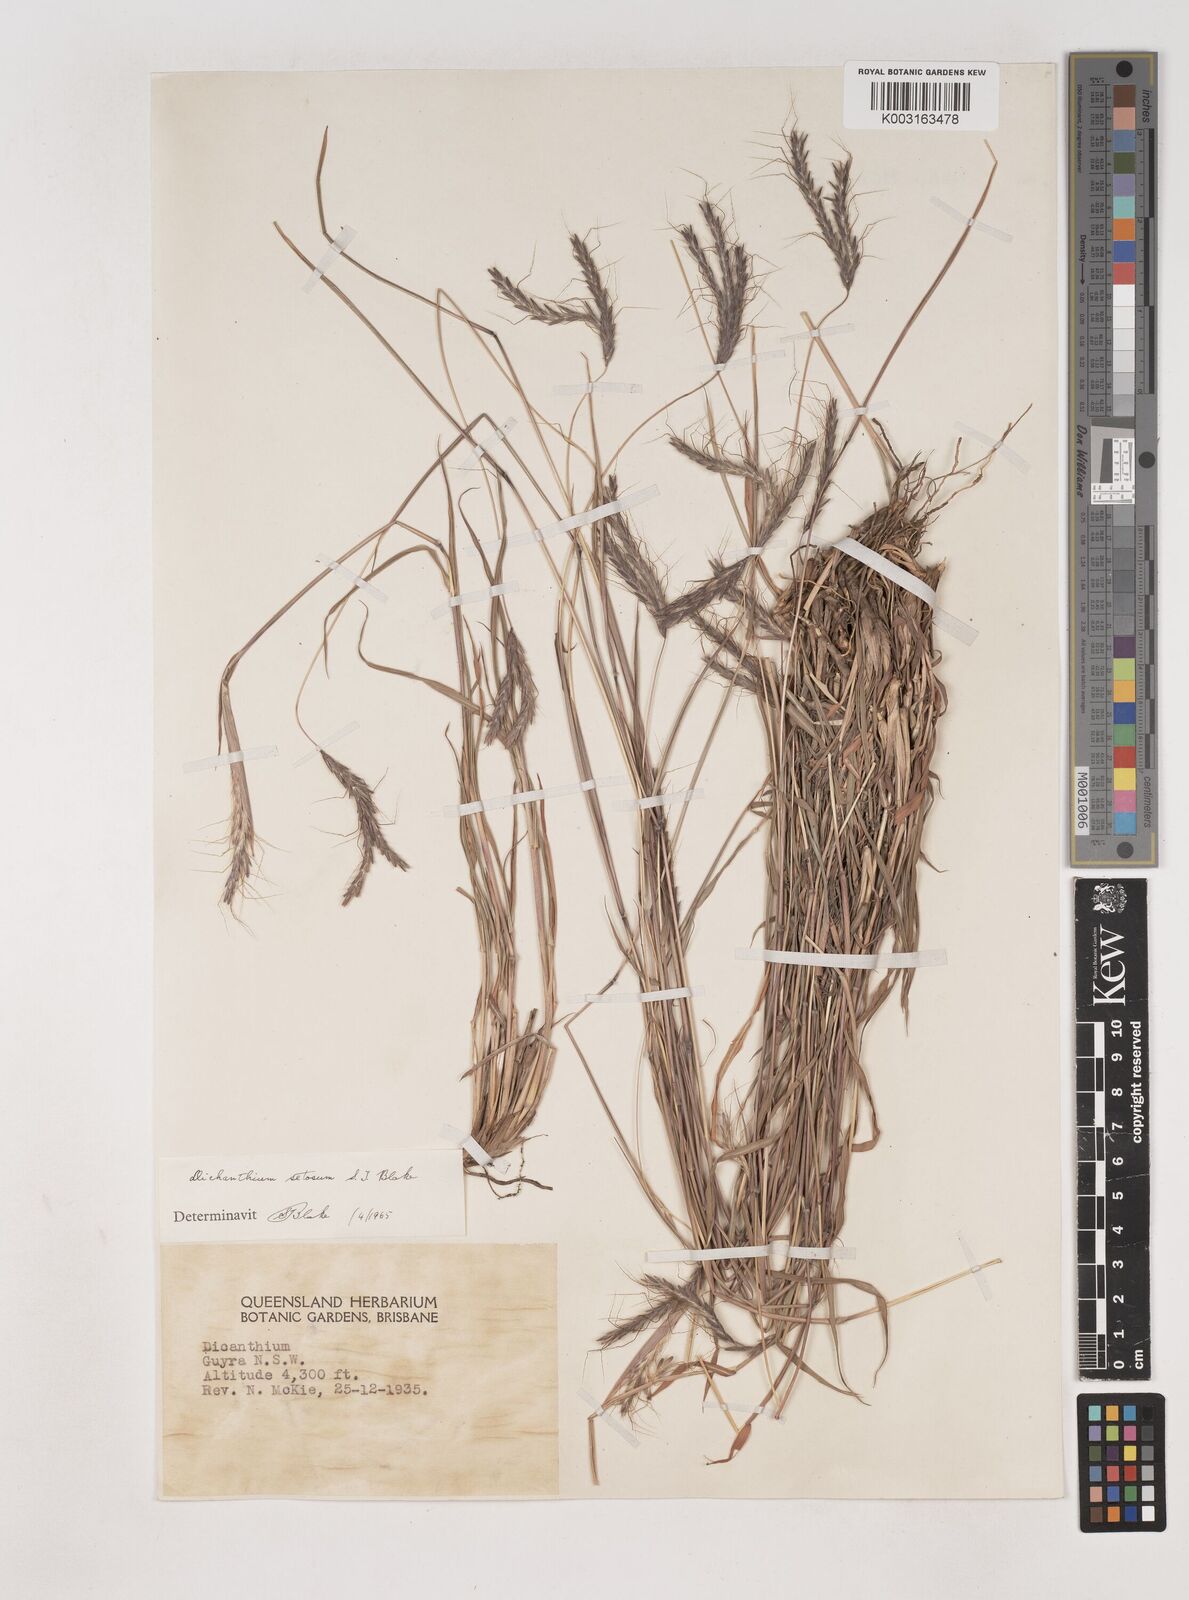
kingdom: Plantae
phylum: Tracheophyta
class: Liliopsida
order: Poales
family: Poaceae
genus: Dichanthium
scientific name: Dichanthium setosum
